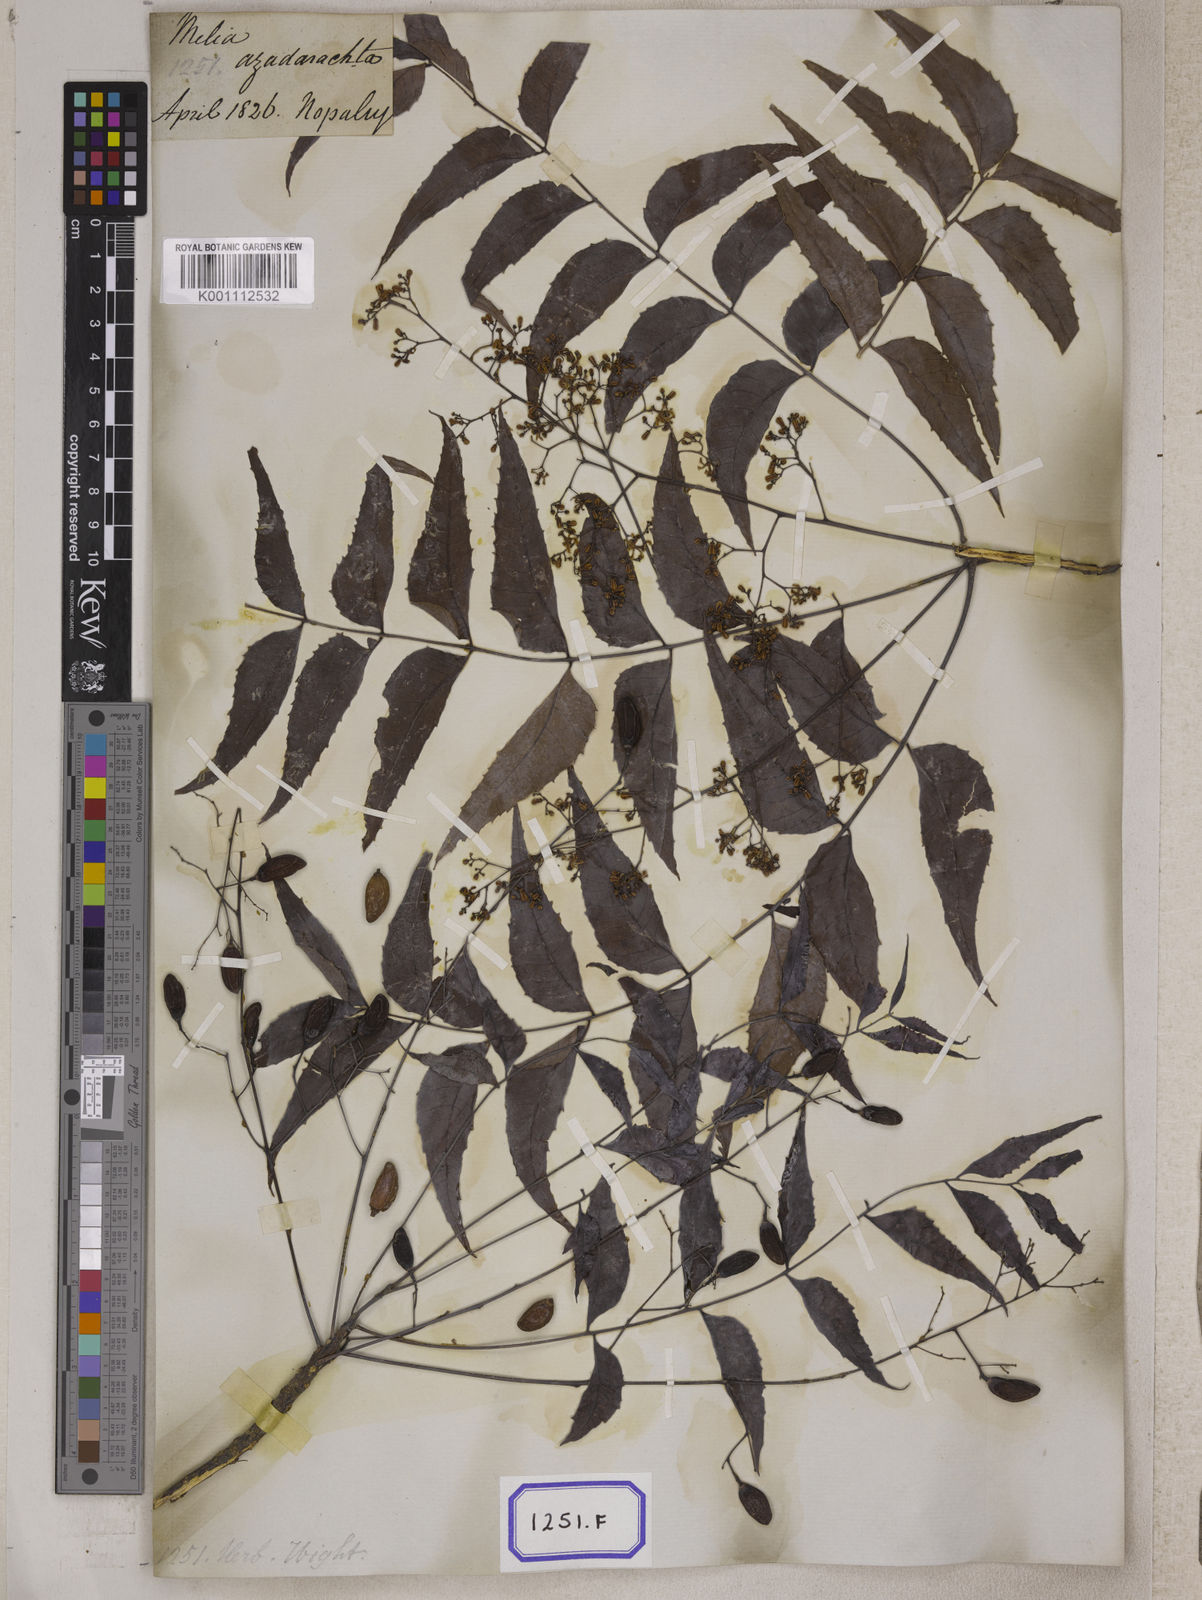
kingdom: Plantae
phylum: Tracheophyta
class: Magnoliopsida
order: Sapindales
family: Meliaceae
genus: Azadirachta
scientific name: Azadirachta indica
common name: Neem
